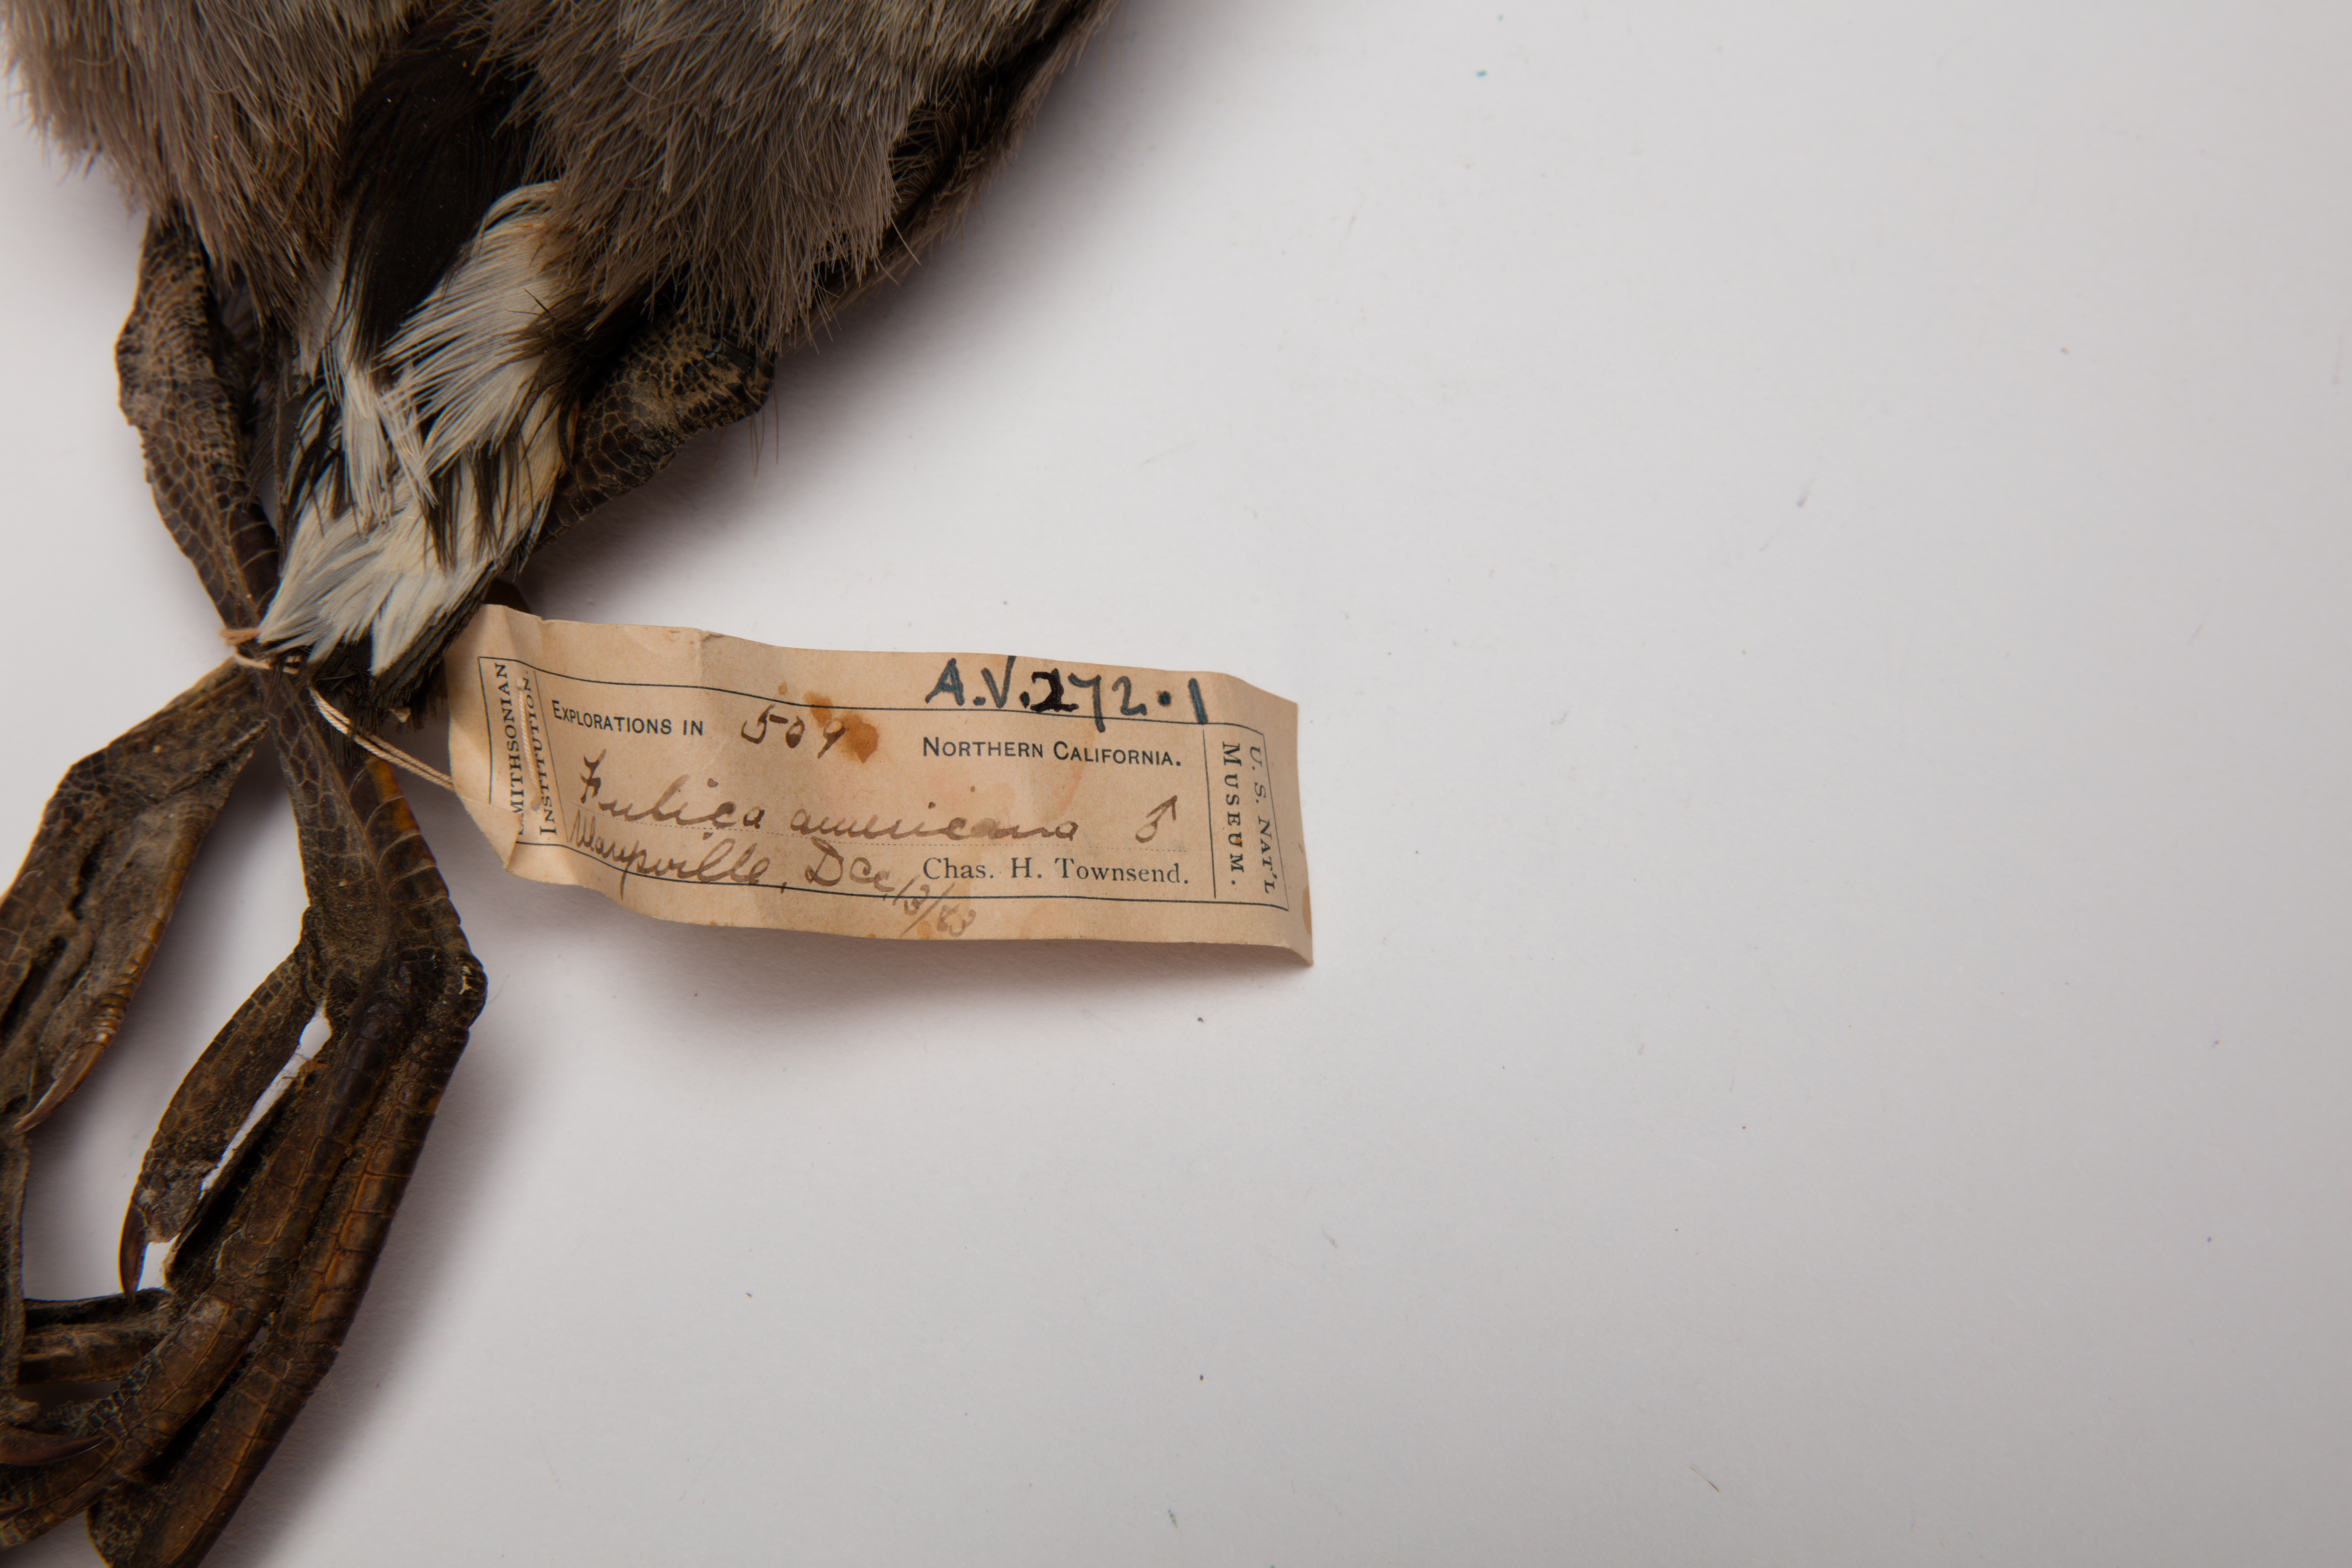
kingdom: Animalia
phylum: Chordata
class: Aves
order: Gruiformes
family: Rallidae
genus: Fulica
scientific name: Fulica americana
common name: American coot
